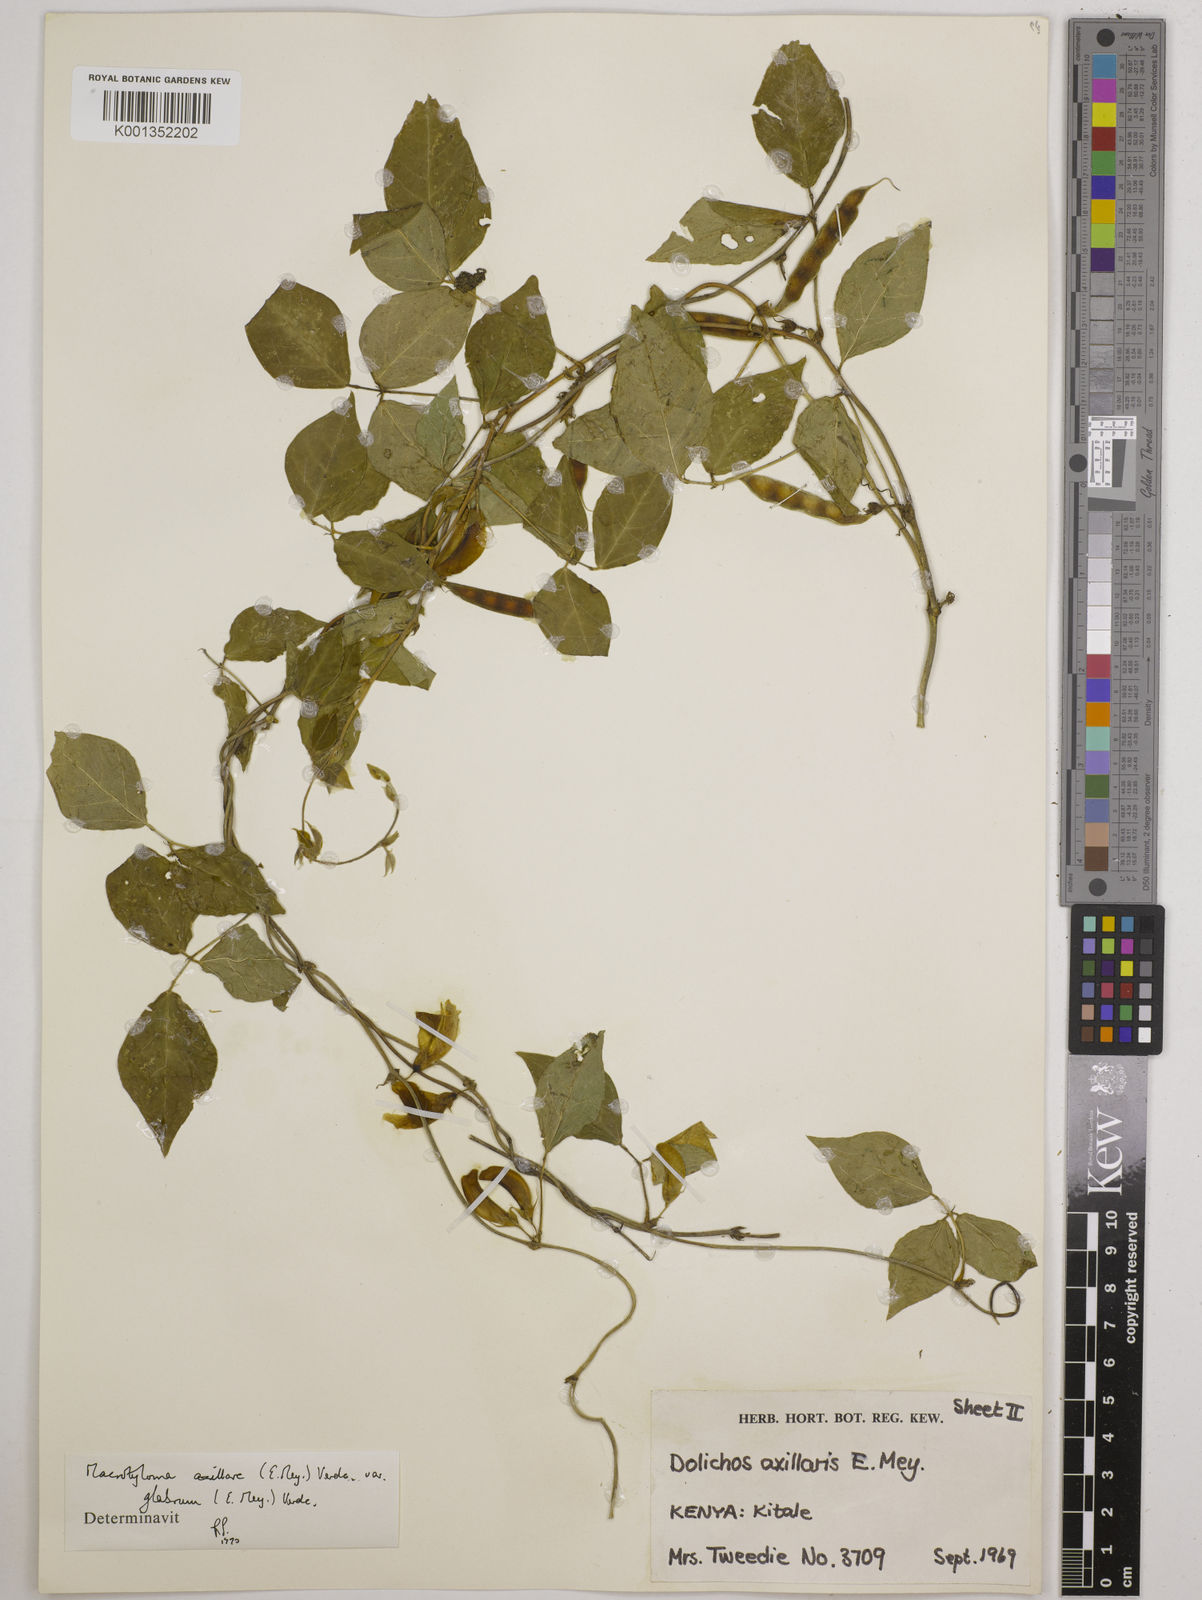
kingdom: Plantae
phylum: Tracheophyta
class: Magnoliopsida
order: Fabales
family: Fabaceae
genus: Macrotyloma
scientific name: Macrotyloma
